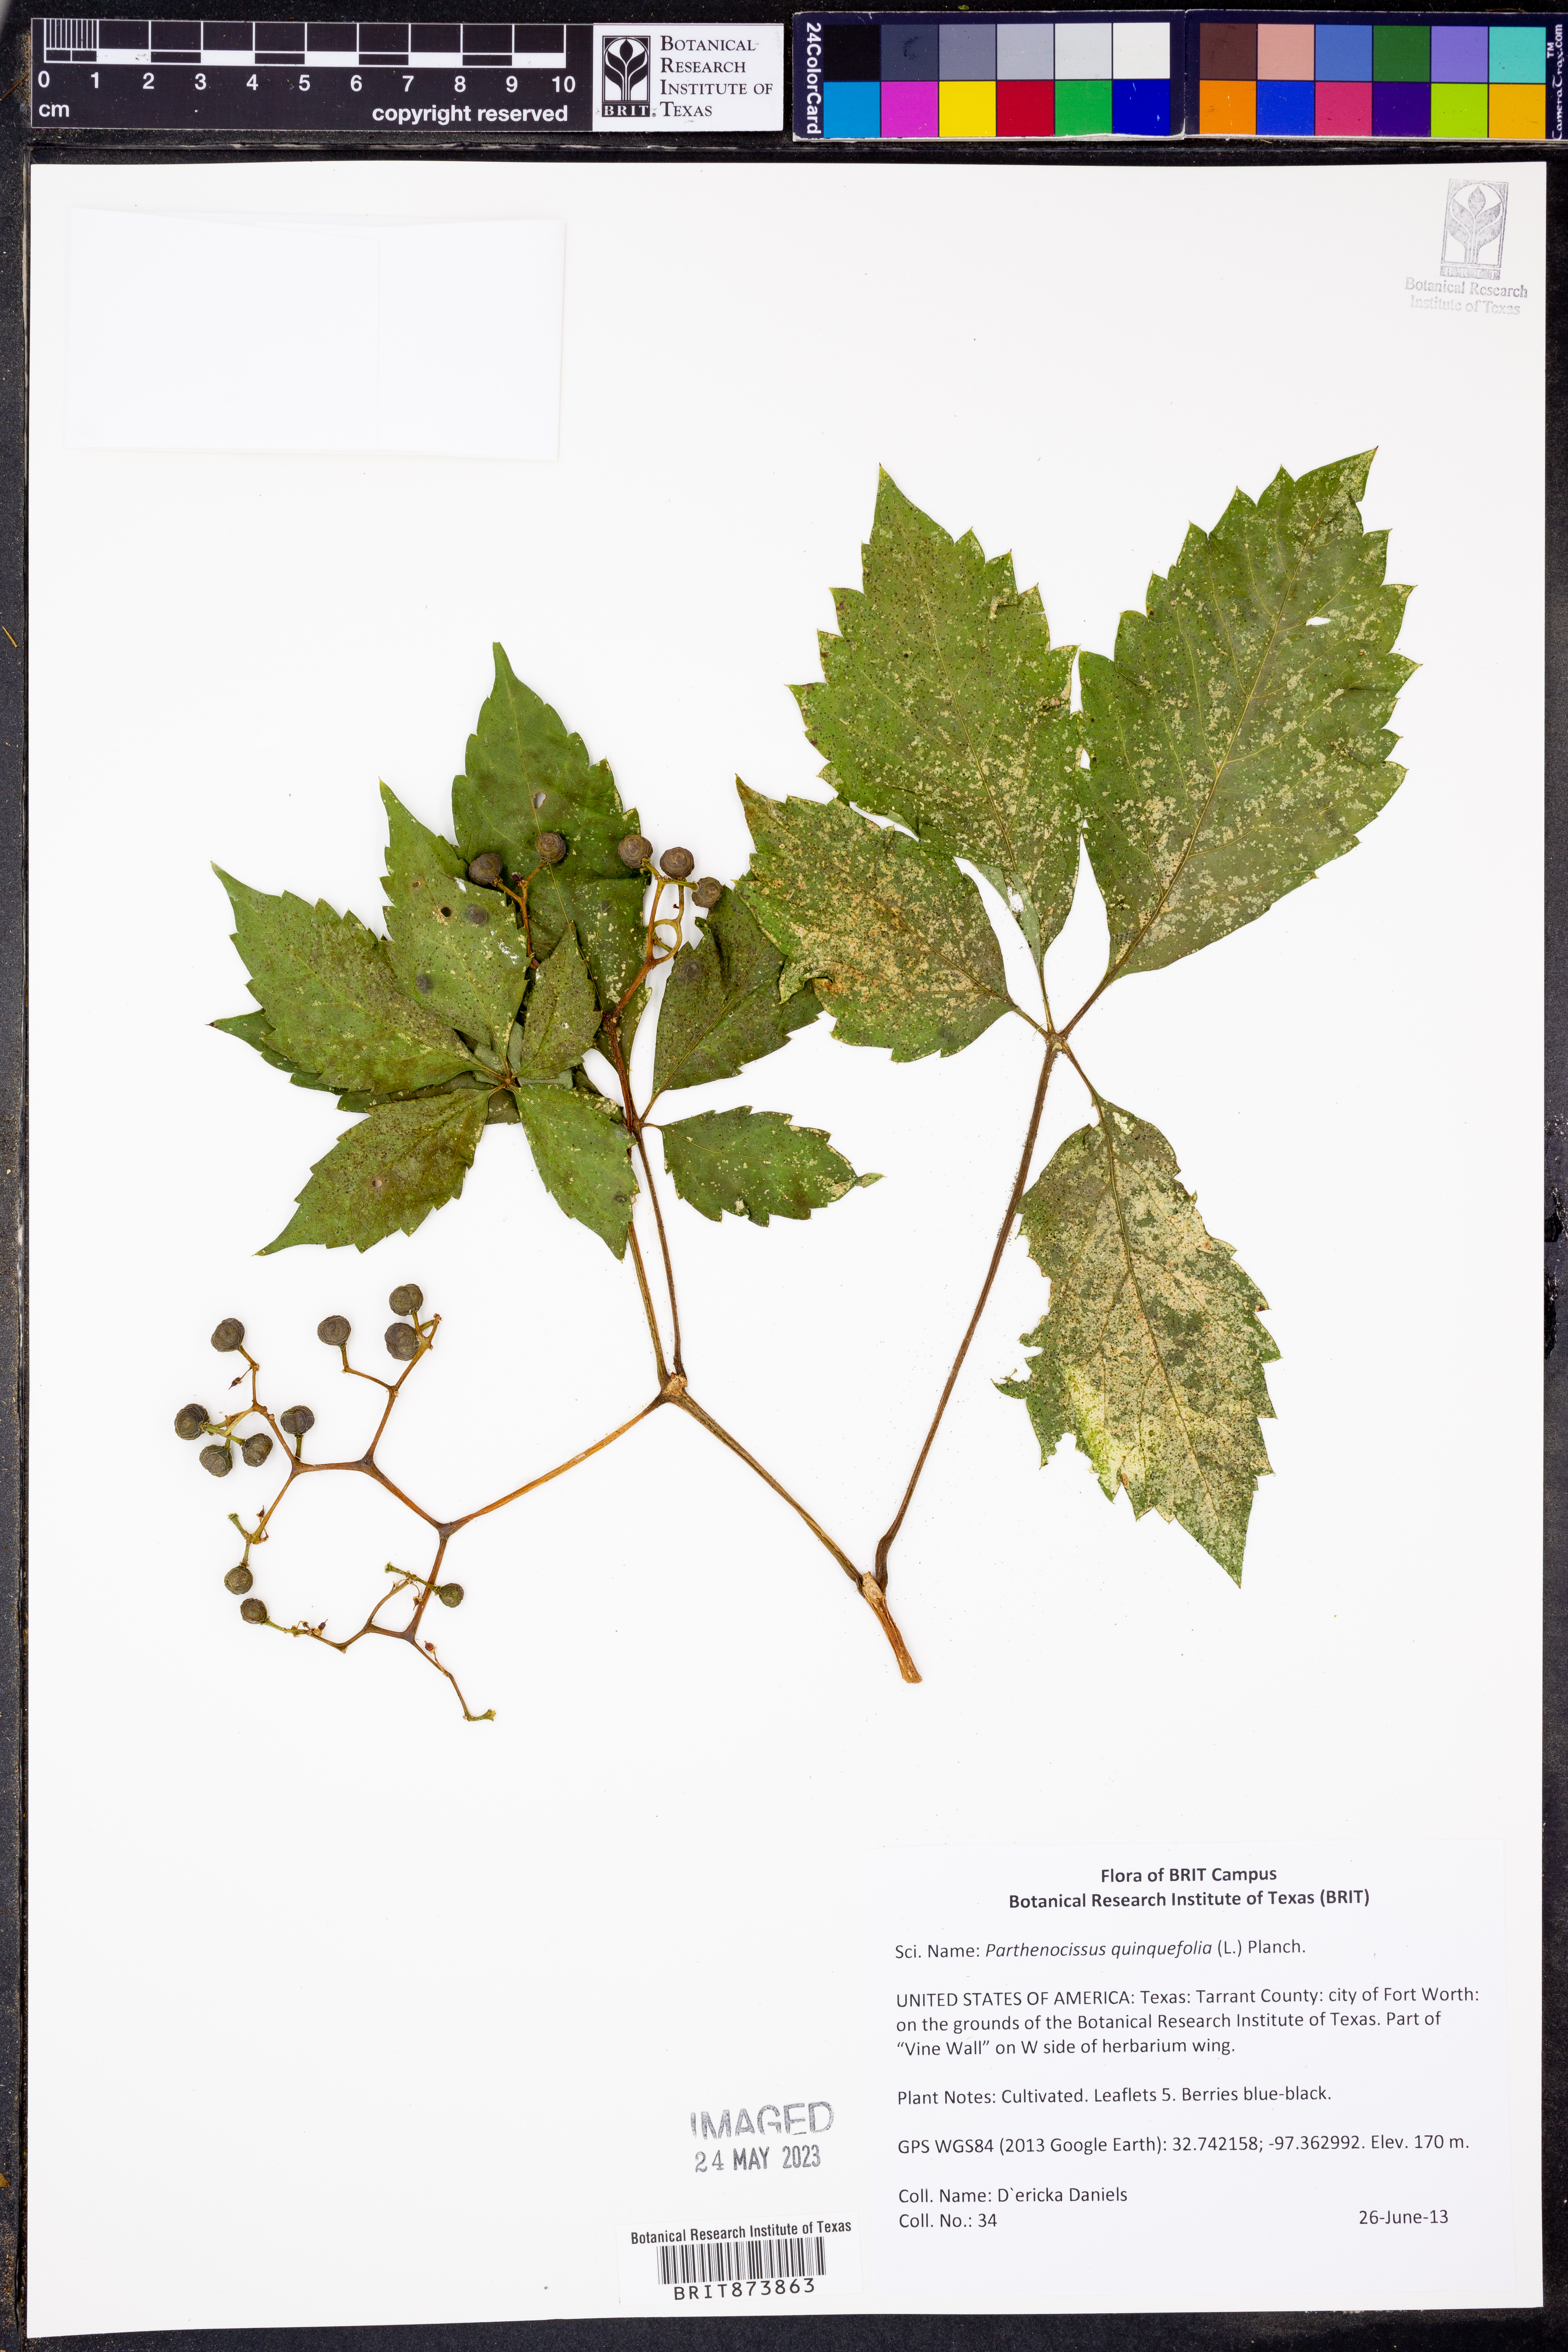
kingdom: Plantae
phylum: Tracheophyta
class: Magnoliopsida
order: Vitales
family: Vitaceae
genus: Parthenocissus
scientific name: Parthenocissus quinquefolia
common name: Virginia-creeper
